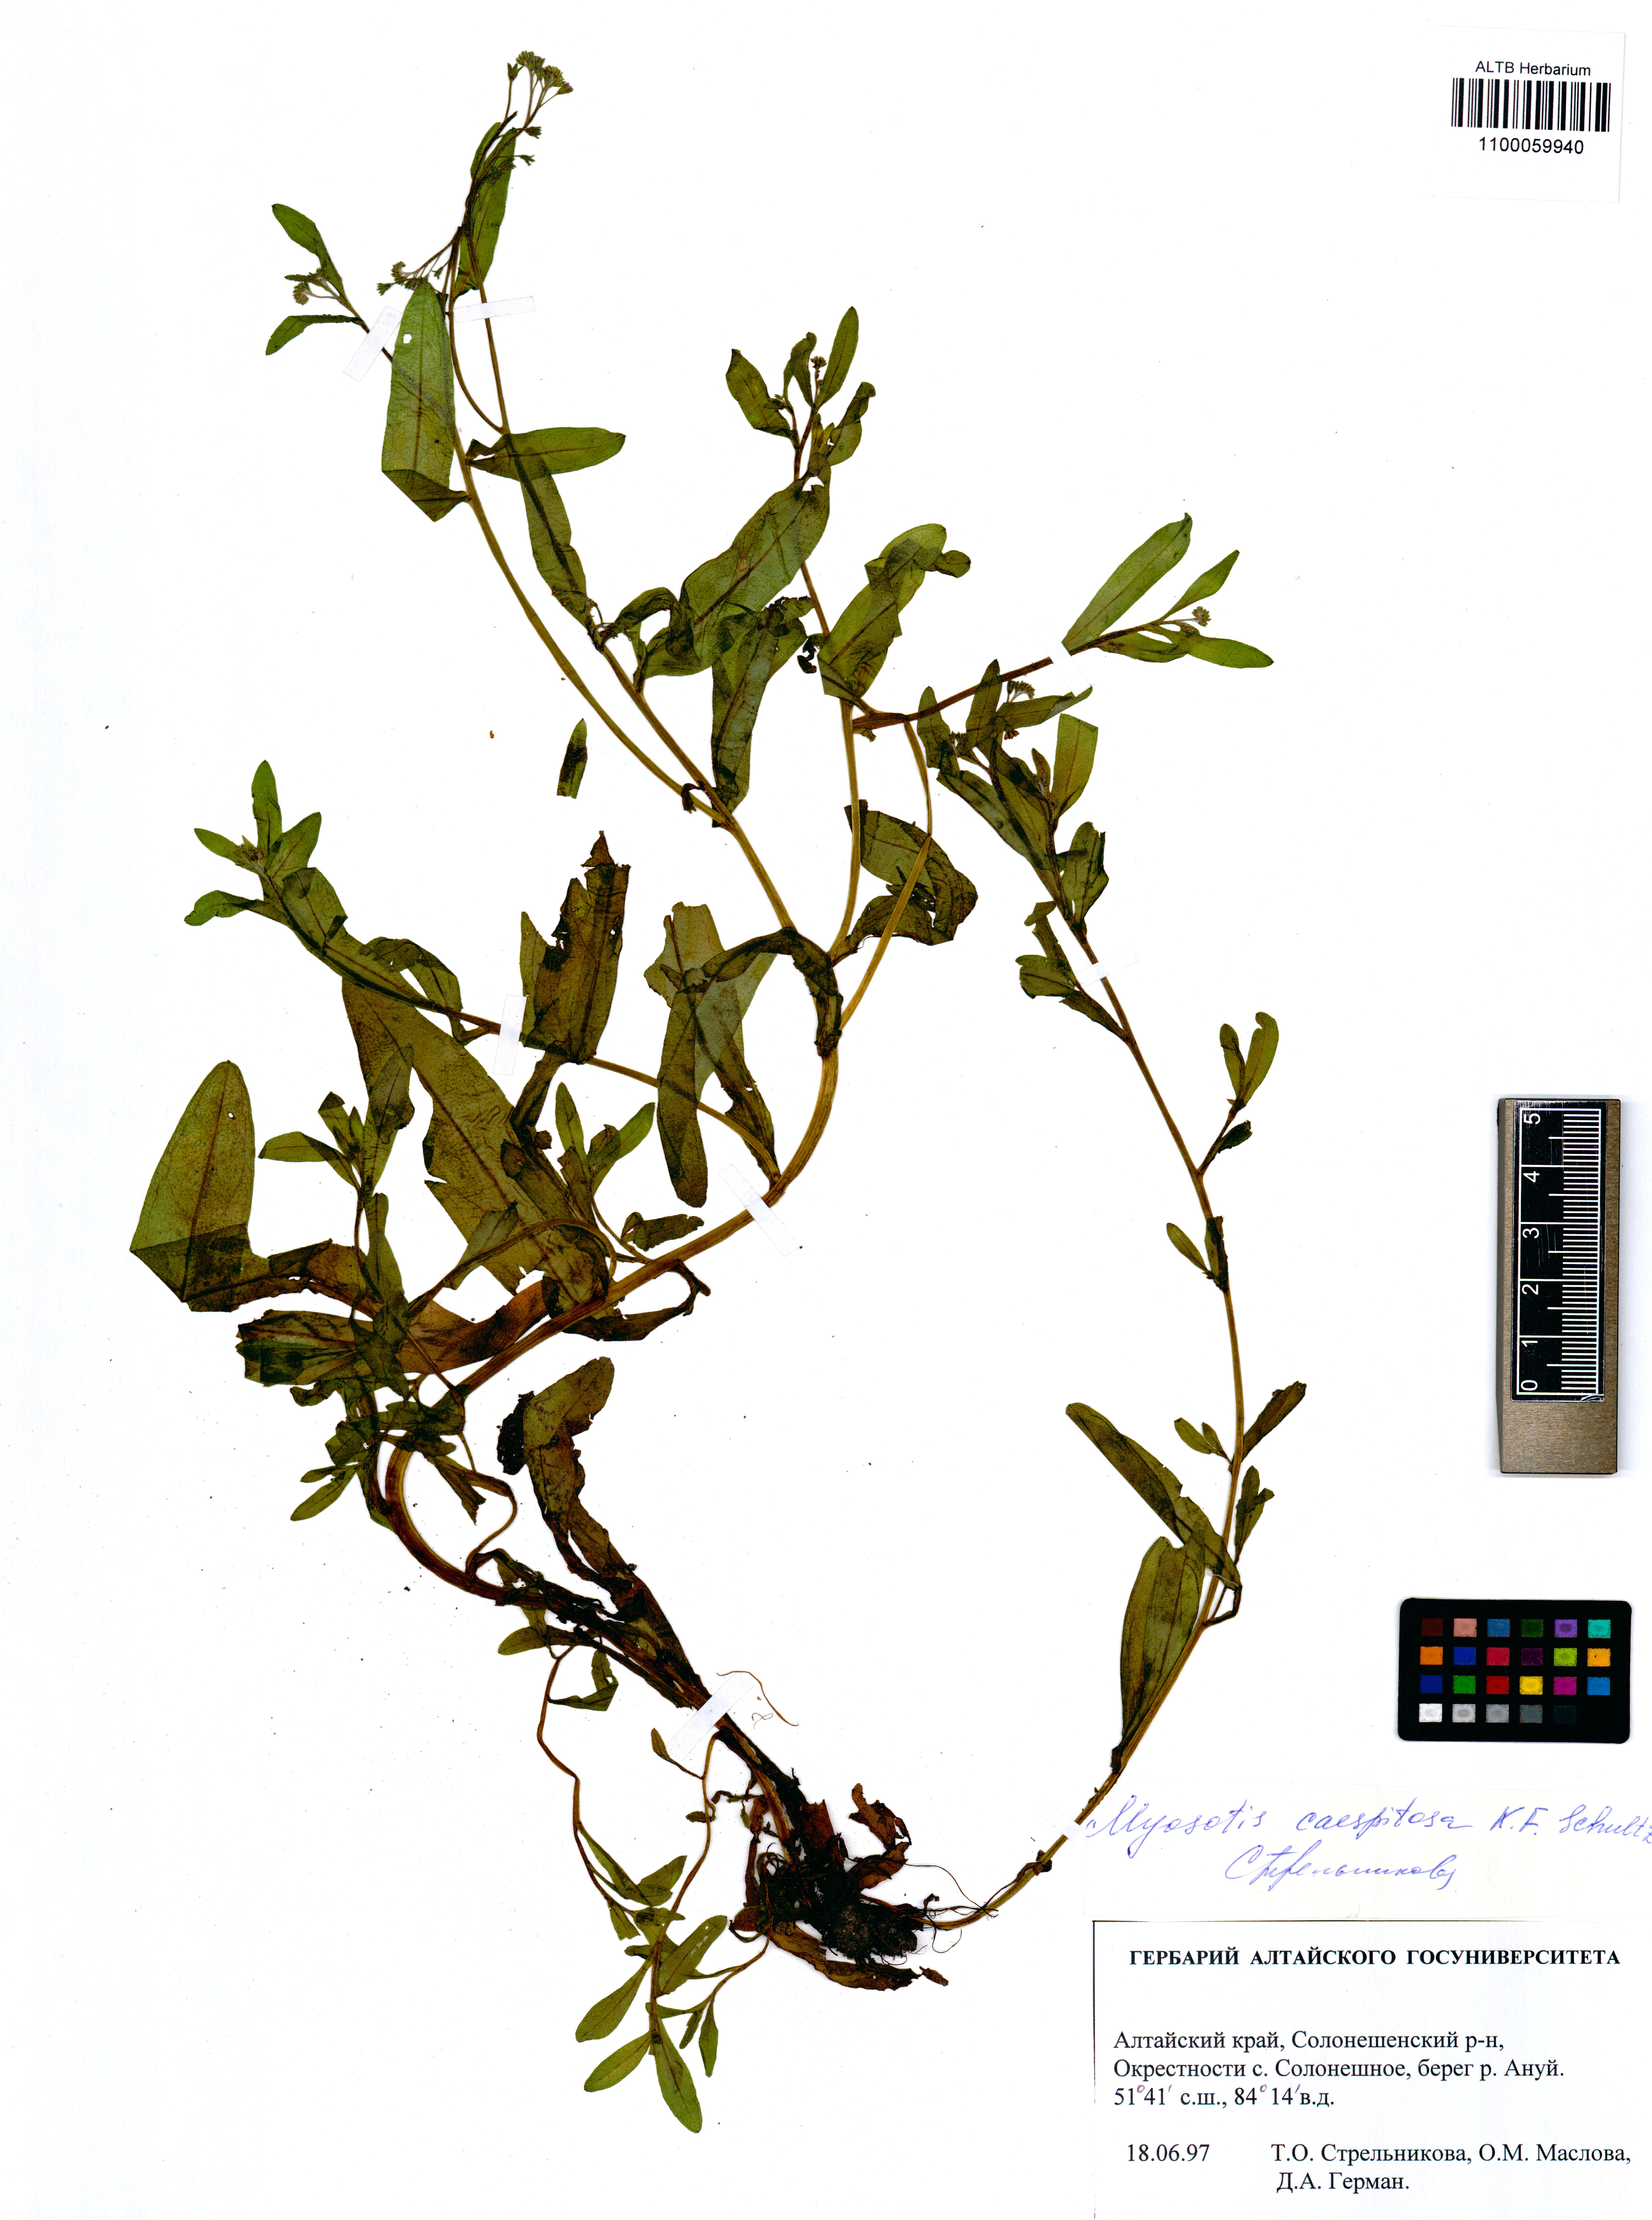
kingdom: Plantae
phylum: Tracheophyta
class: Magnoliopsida
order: Boraginales
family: Boraginaceae
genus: Myosotis
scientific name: Myosotis laxa
